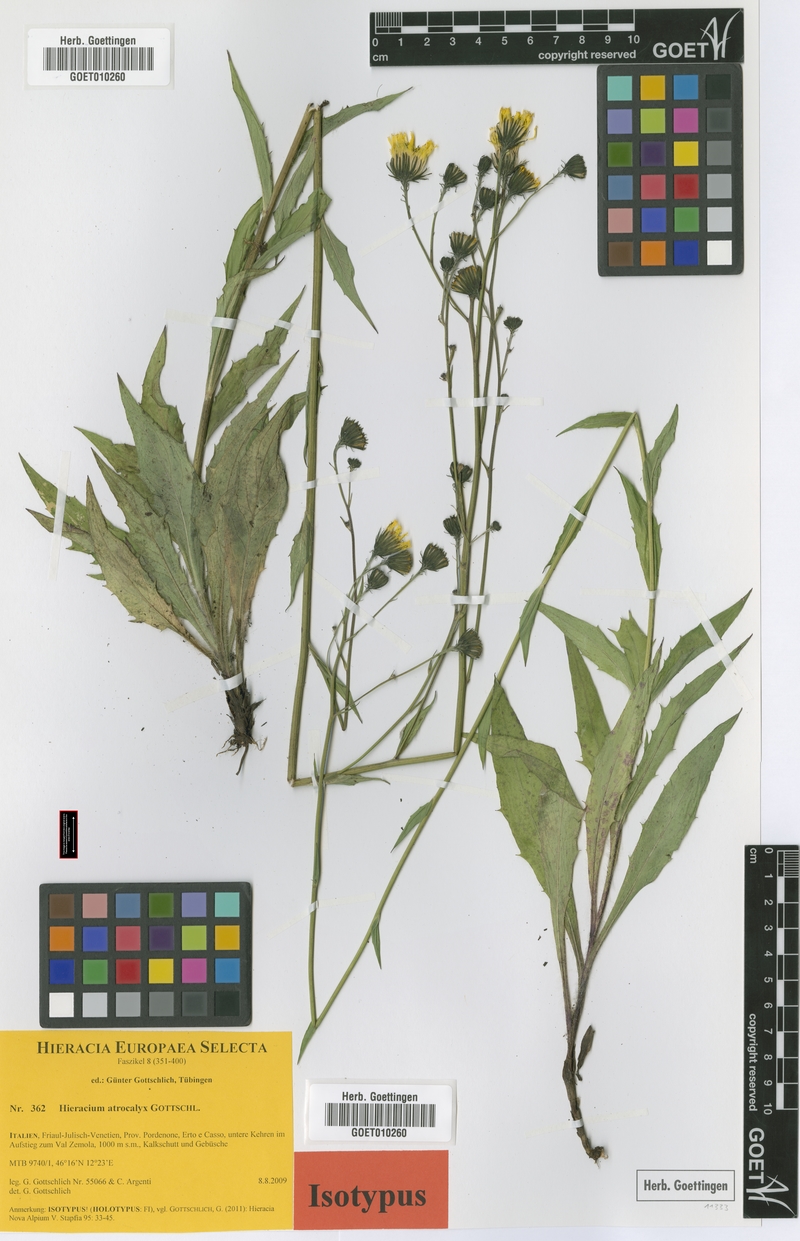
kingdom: Plantae
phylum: Tracheophyta
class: Magnoliopsida
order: Asterales
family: Asteraceae
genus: Hieracium
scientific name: Hieracium atrocalyx
